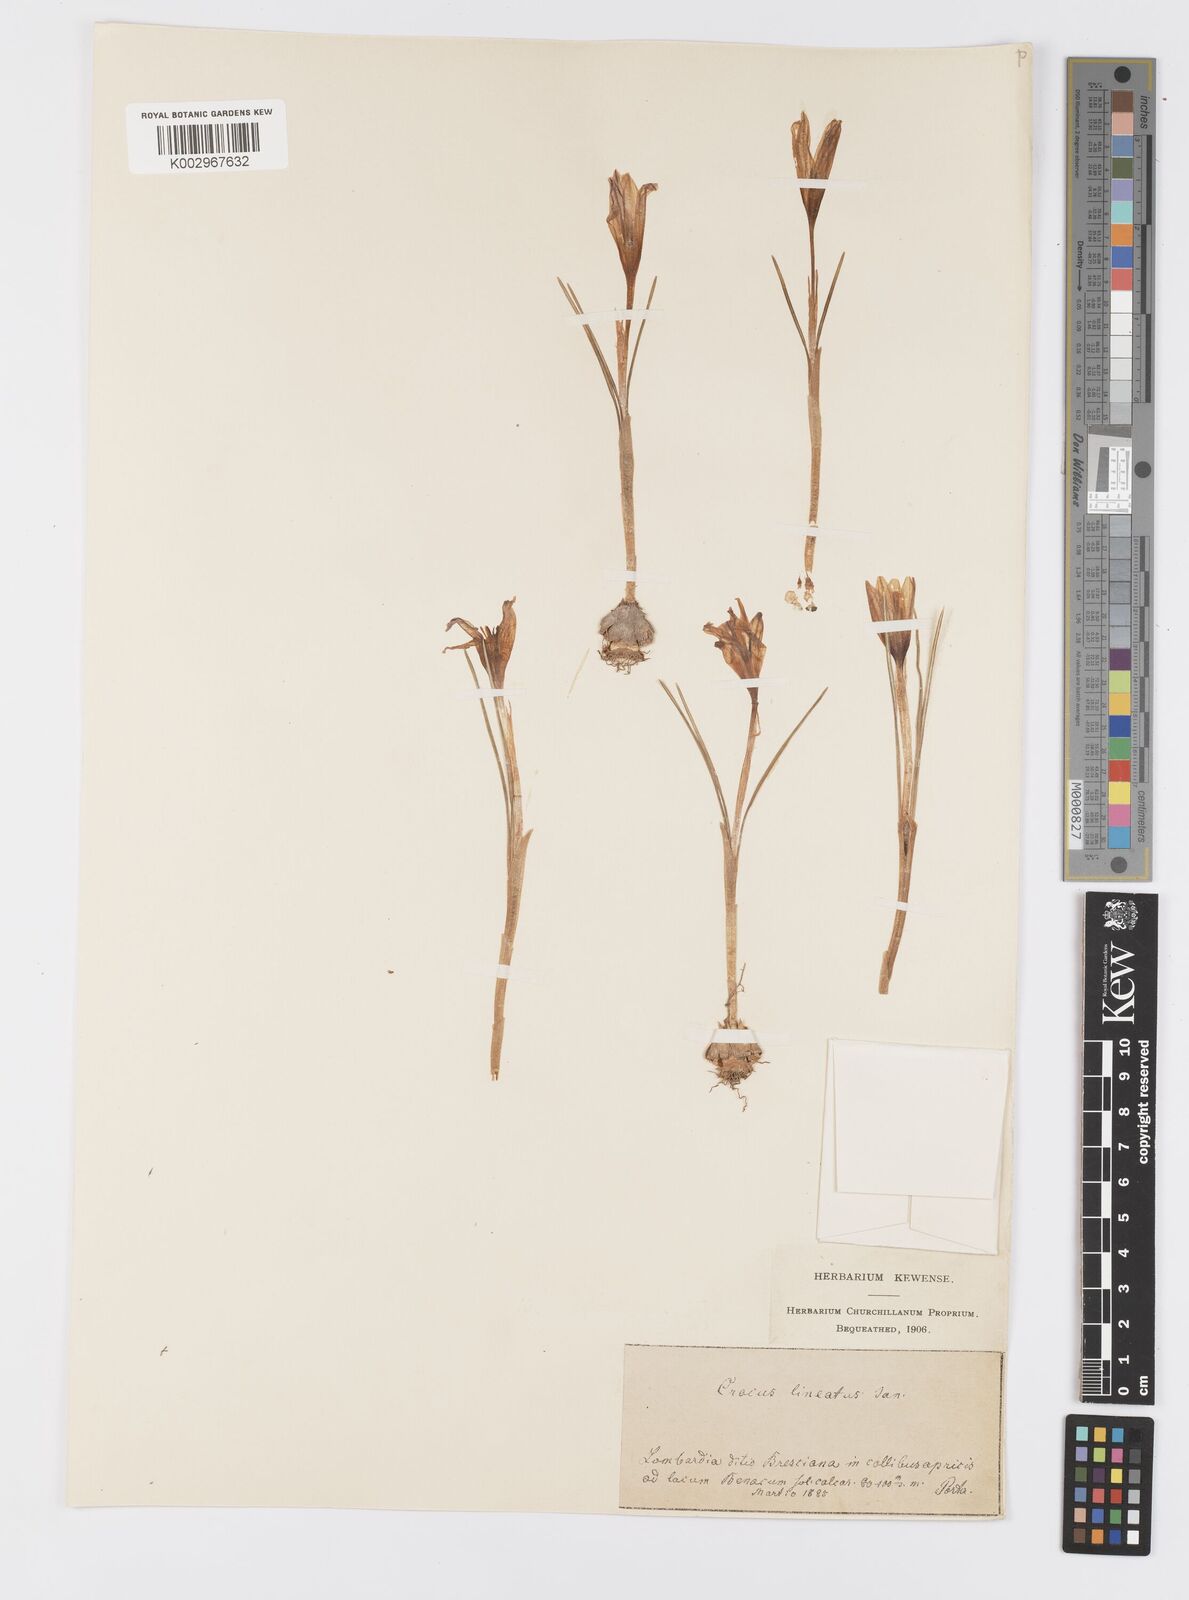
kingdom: Plantae
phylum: Tracheophyta
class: Liliopsida
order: Asparagales
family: Iridaceae
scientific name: Iridaceae
